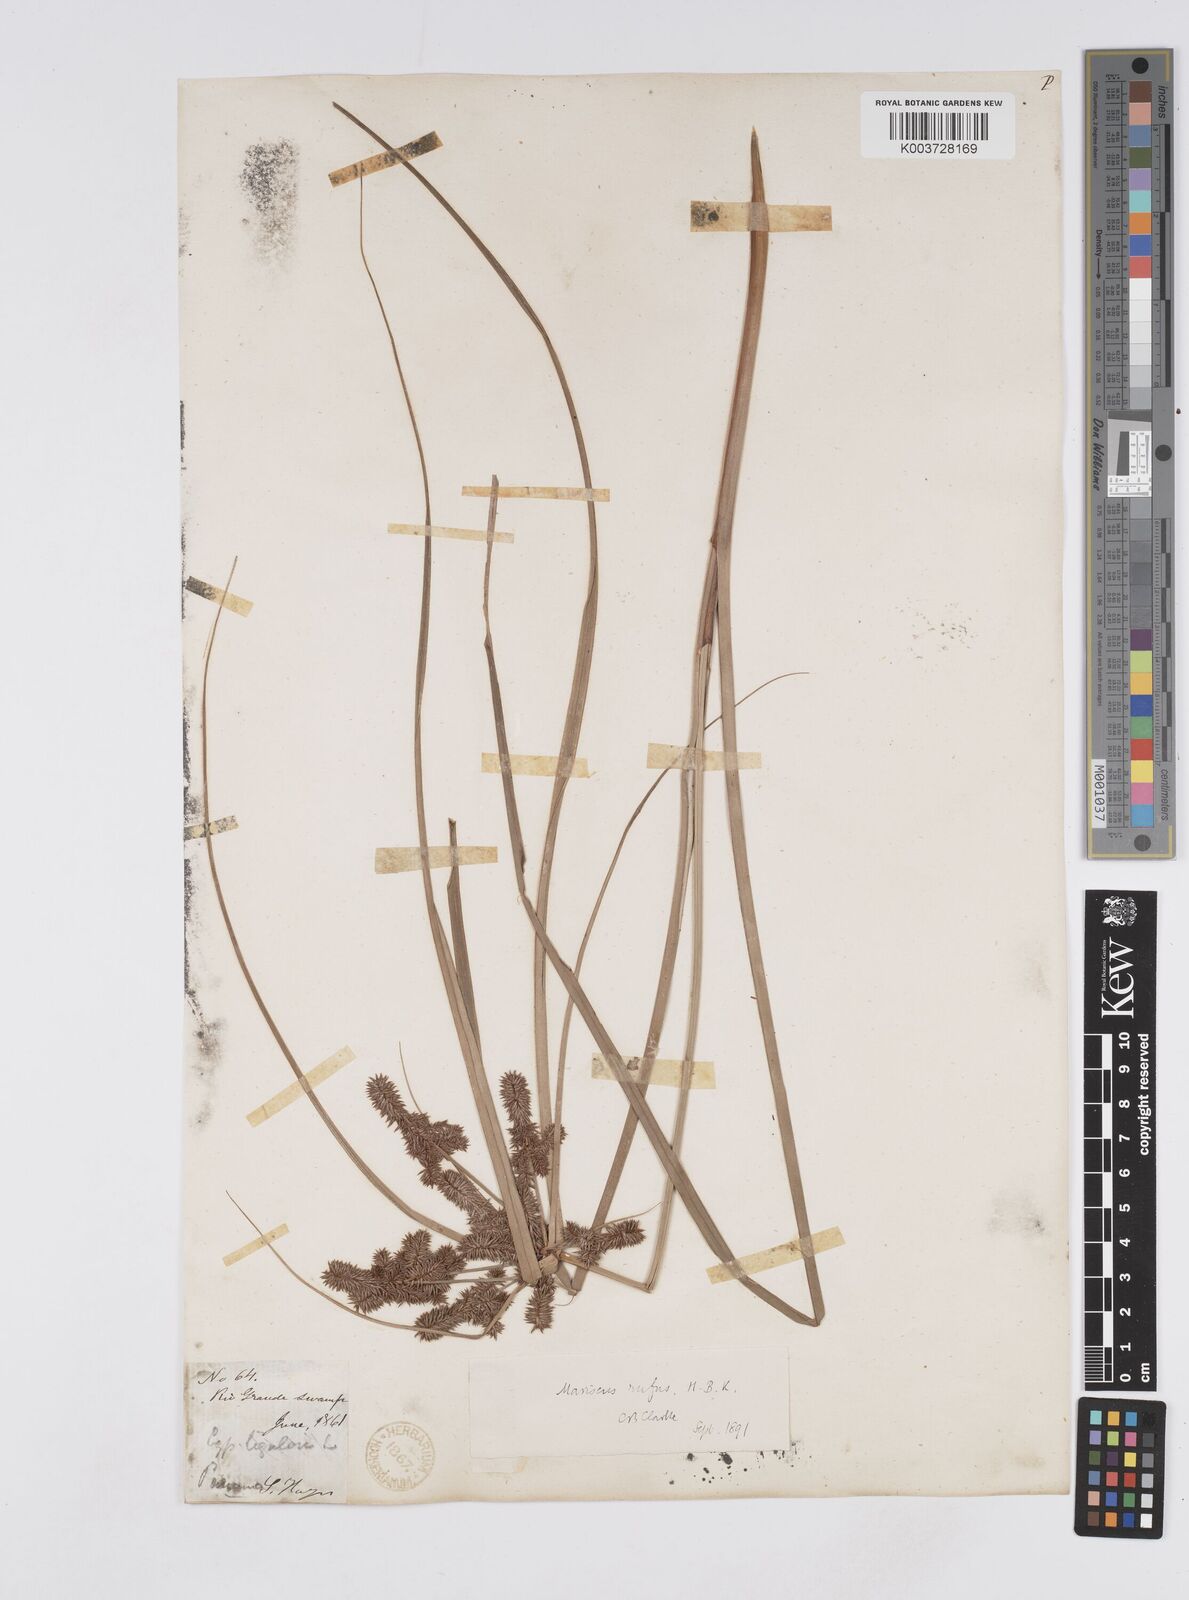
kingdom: Plantae
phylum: Tracheophyta
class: Liliopsida
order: Poales
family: Cyperaceae
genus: Cyperus
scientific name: Cyperus ligularis
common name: Swamp flat sedge
